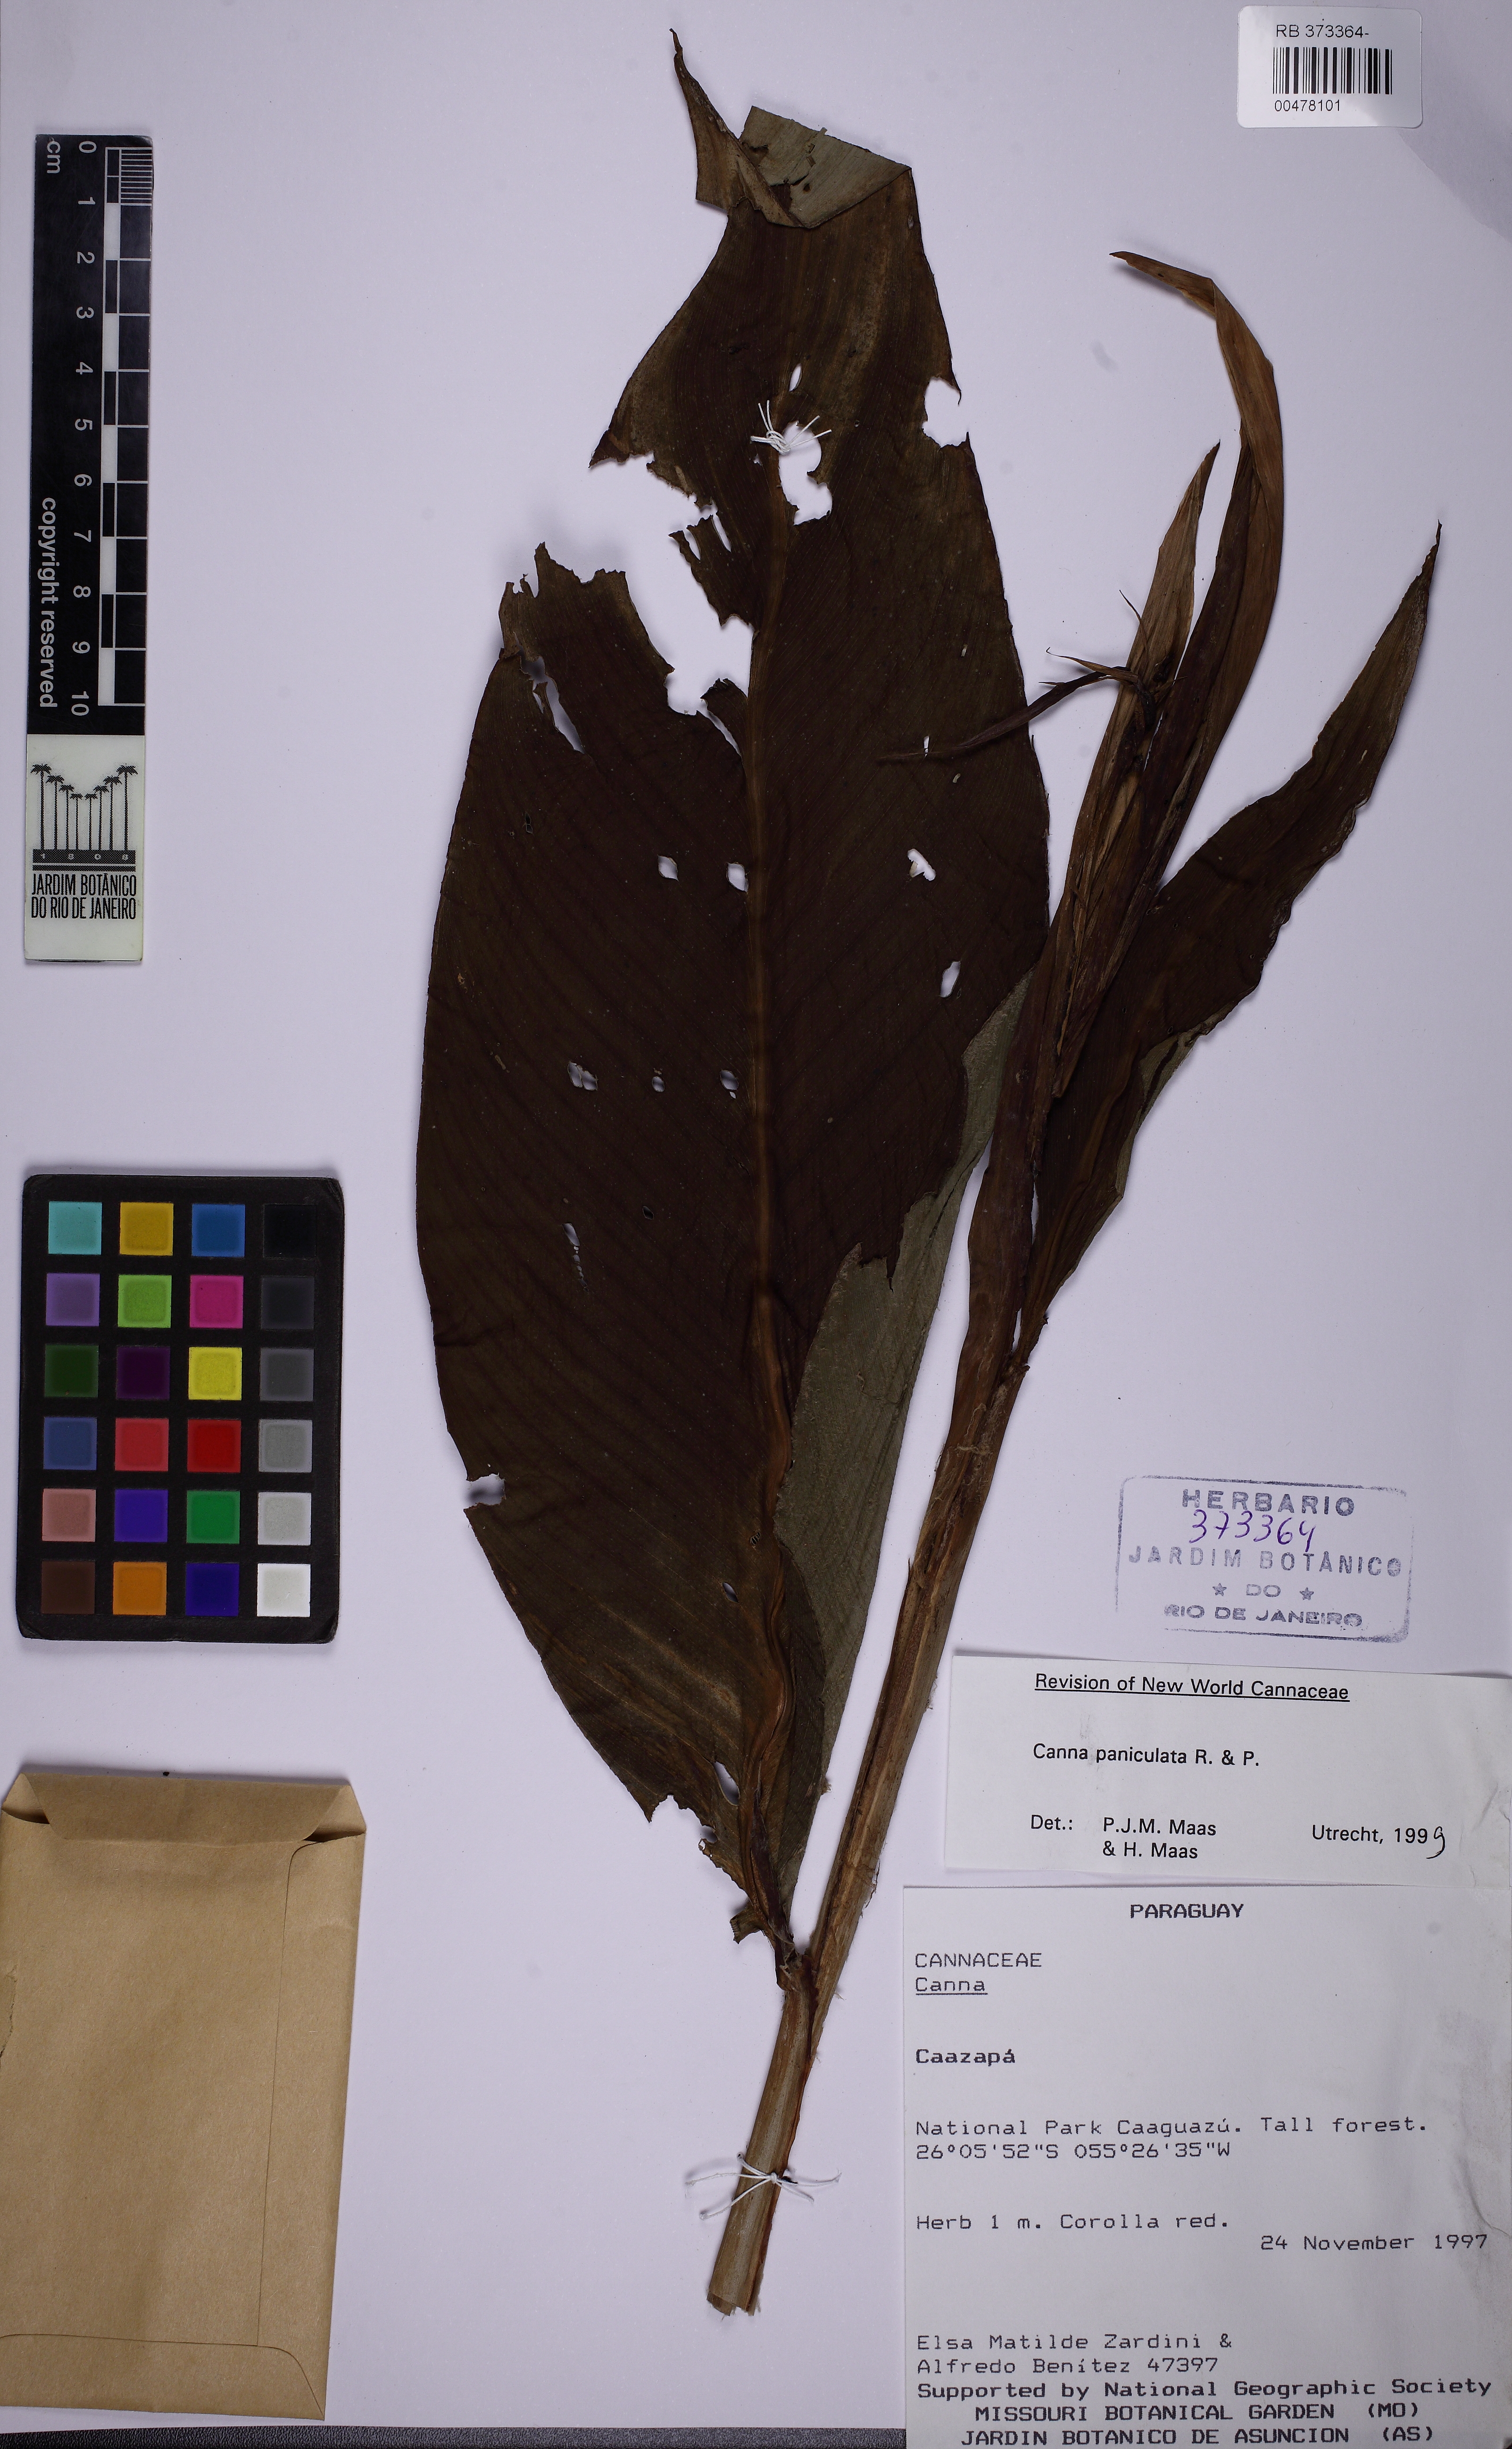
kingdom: Plantae
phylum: Tracheophyta
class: Liliopsida
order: Zingiberales
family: Cannaceae
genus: Canna
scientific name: Canna paniculata
